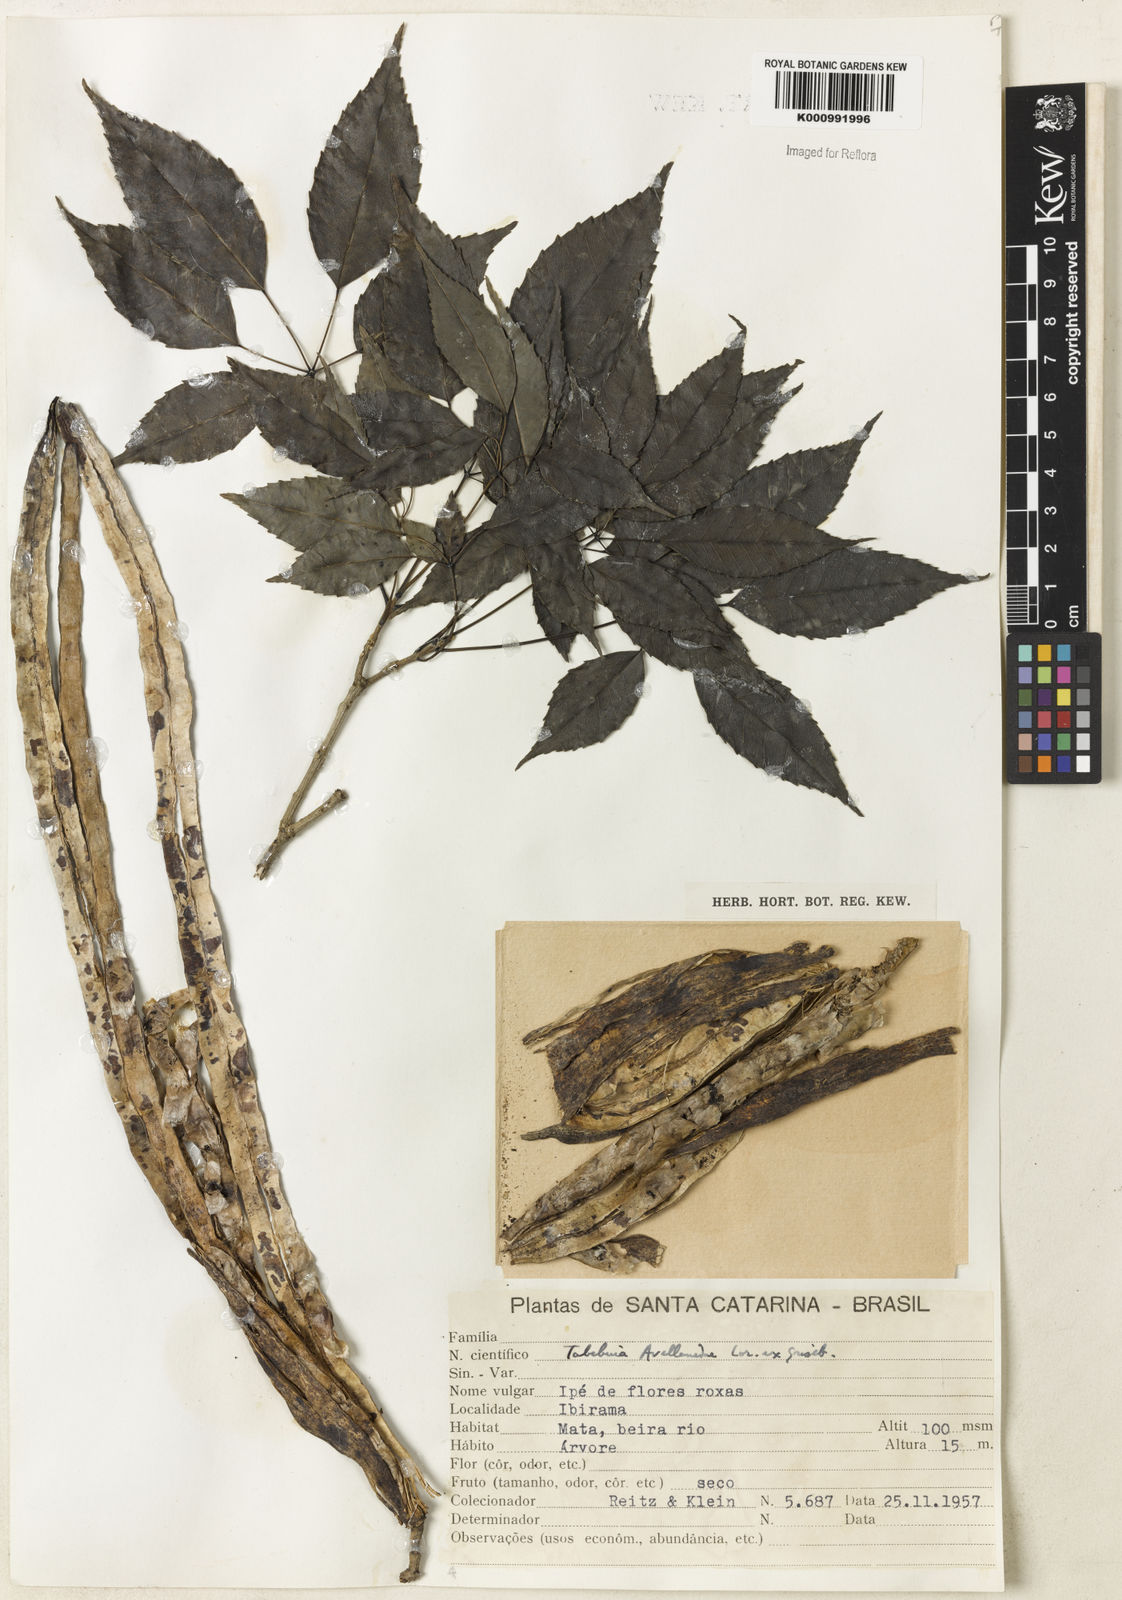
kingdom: Plantae
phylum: Tracheophyta
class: Magnoliopsida
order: Lamiales
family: Bignoniaceae
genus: Handroanthus
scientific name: Handroanthus heptaphyllus
